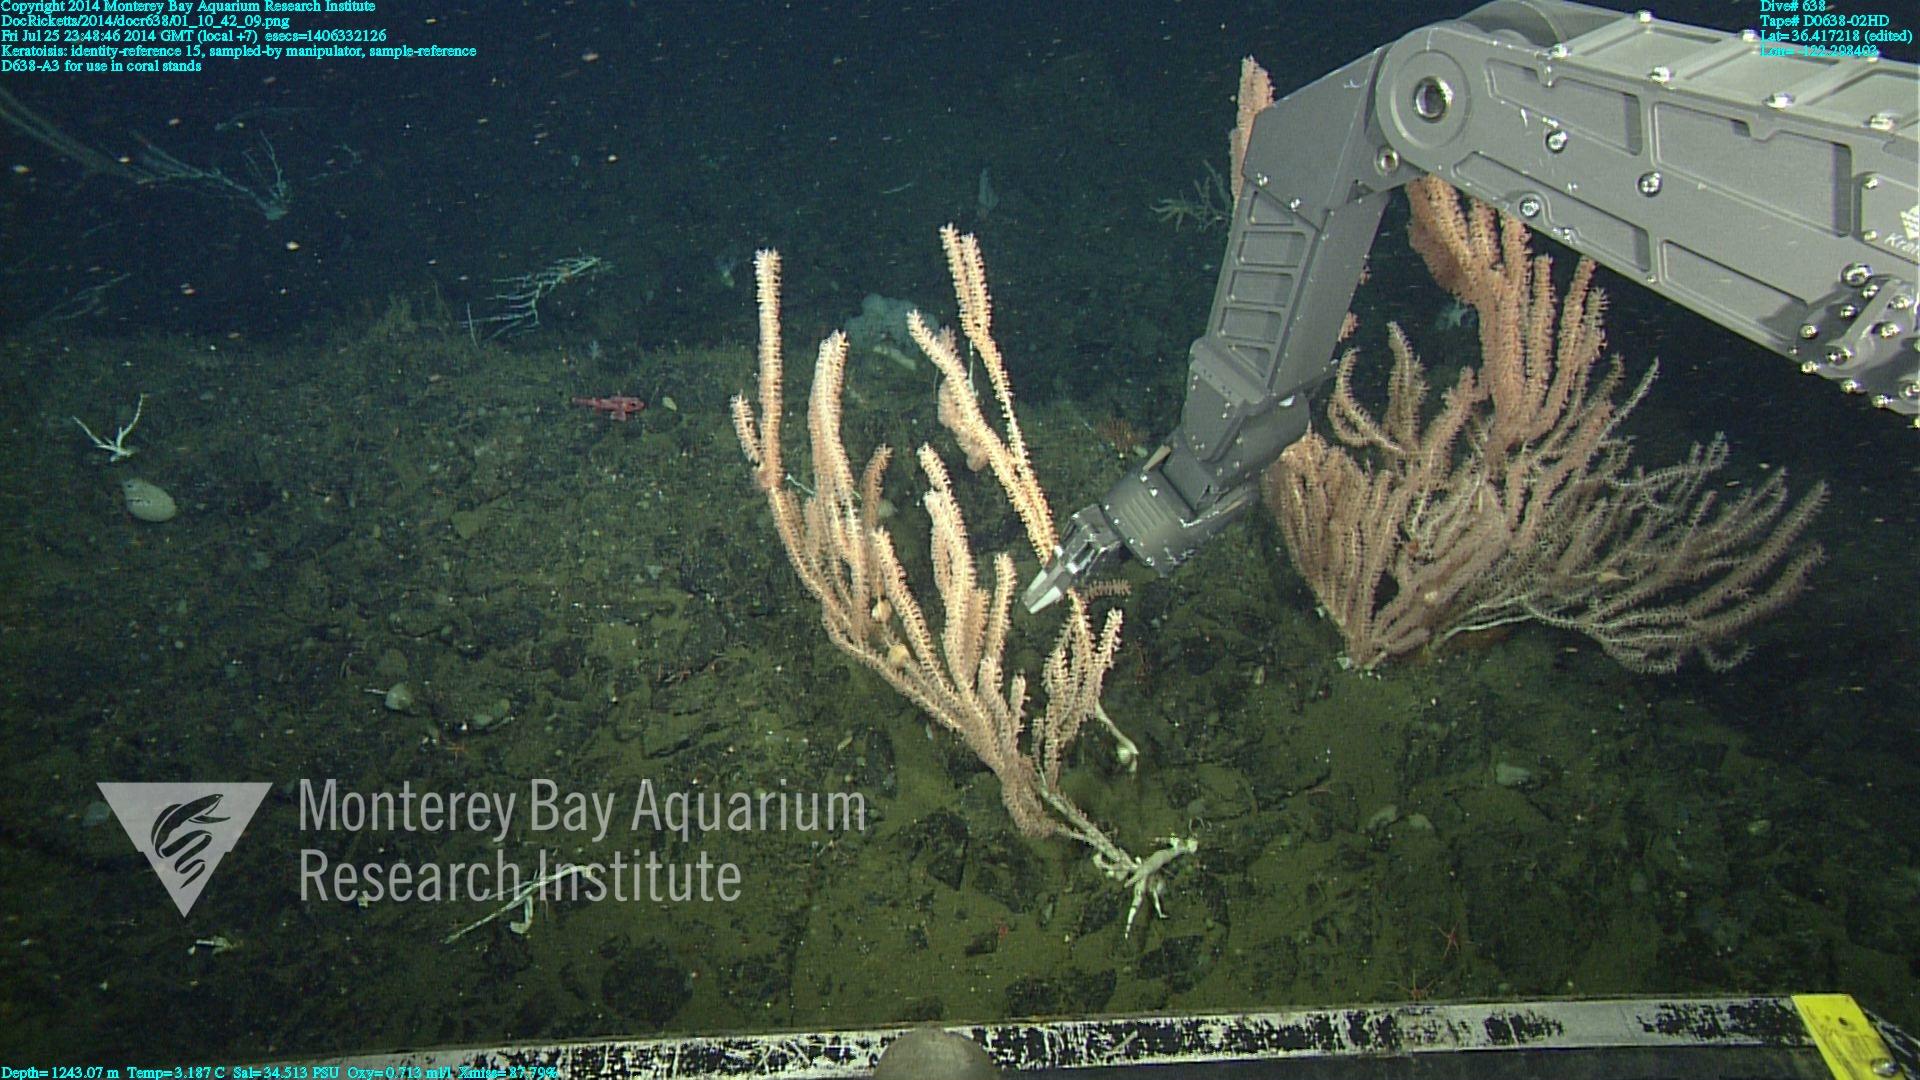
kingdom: Animalia
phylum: Cnidaria
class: Anthozoa
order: Scleralcyonacea
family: Keratoisididae
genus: Keratoisis
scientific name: Keratoisis
